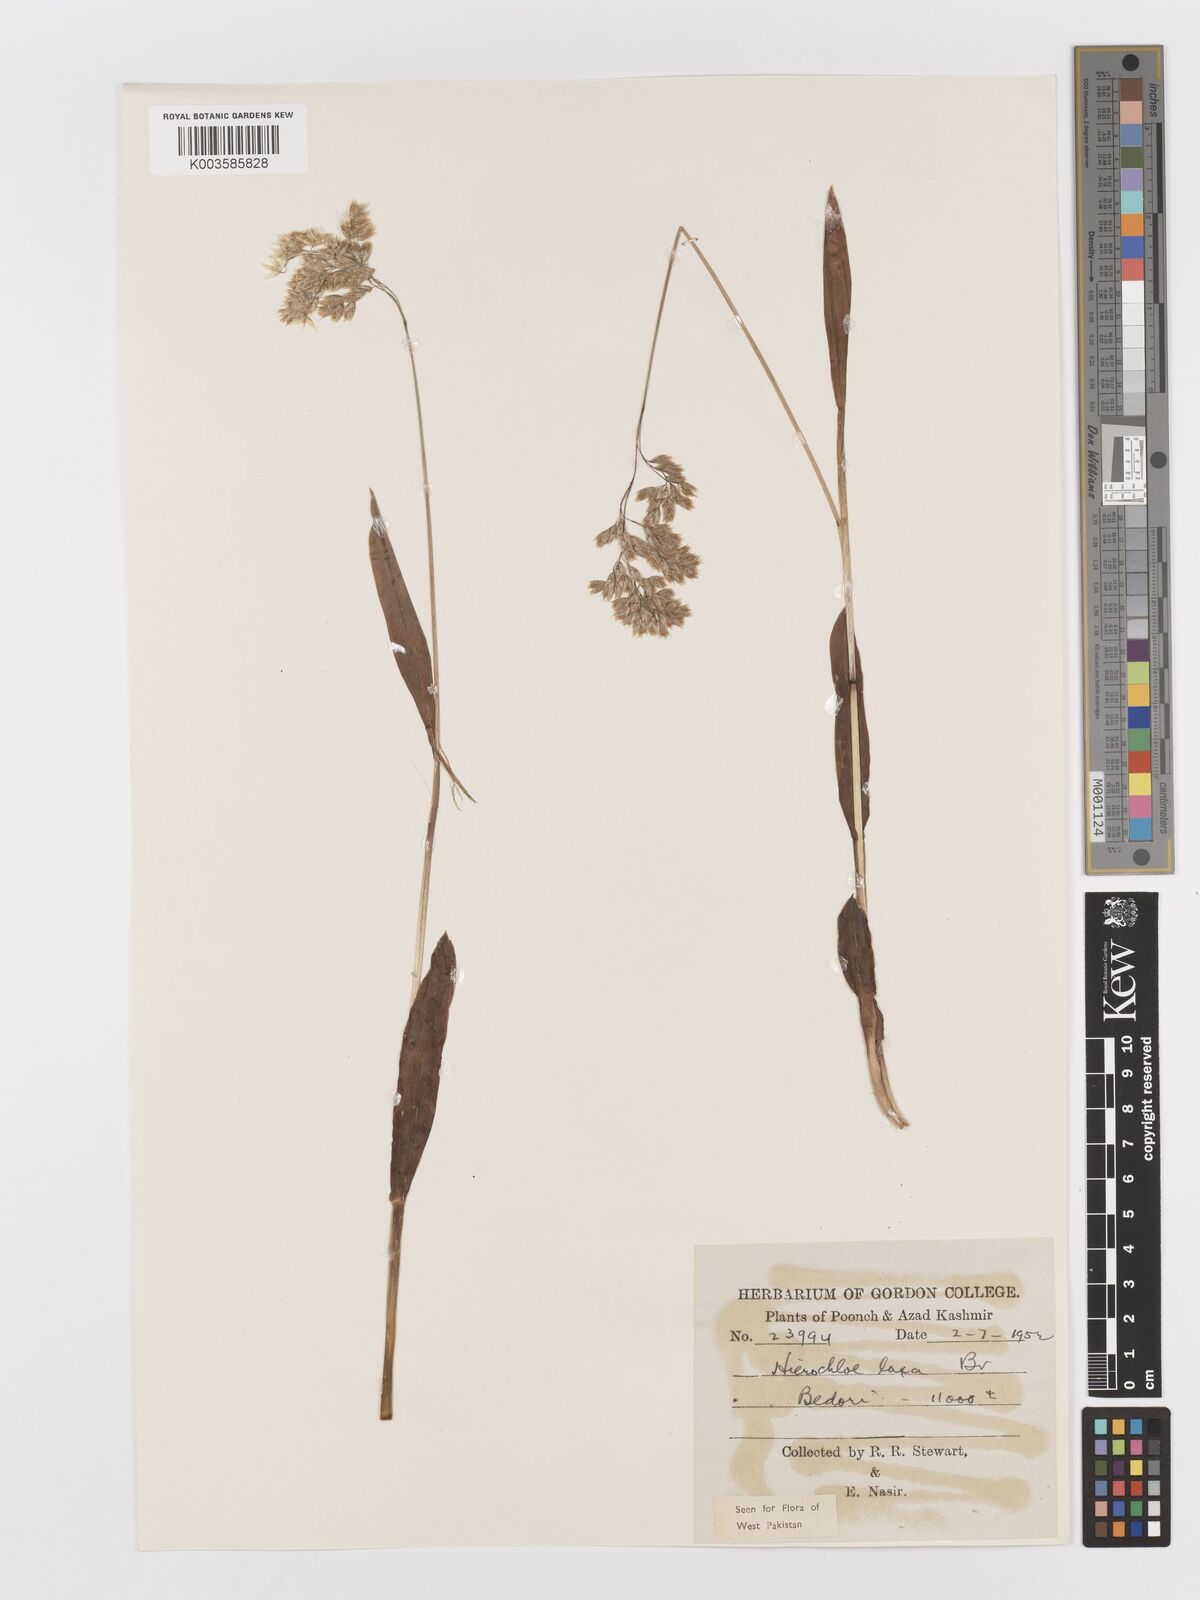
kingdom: Plantae
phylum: Tracheophyta
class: Liliopsida
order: Poales
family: Poaceae
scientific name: Poaceae
